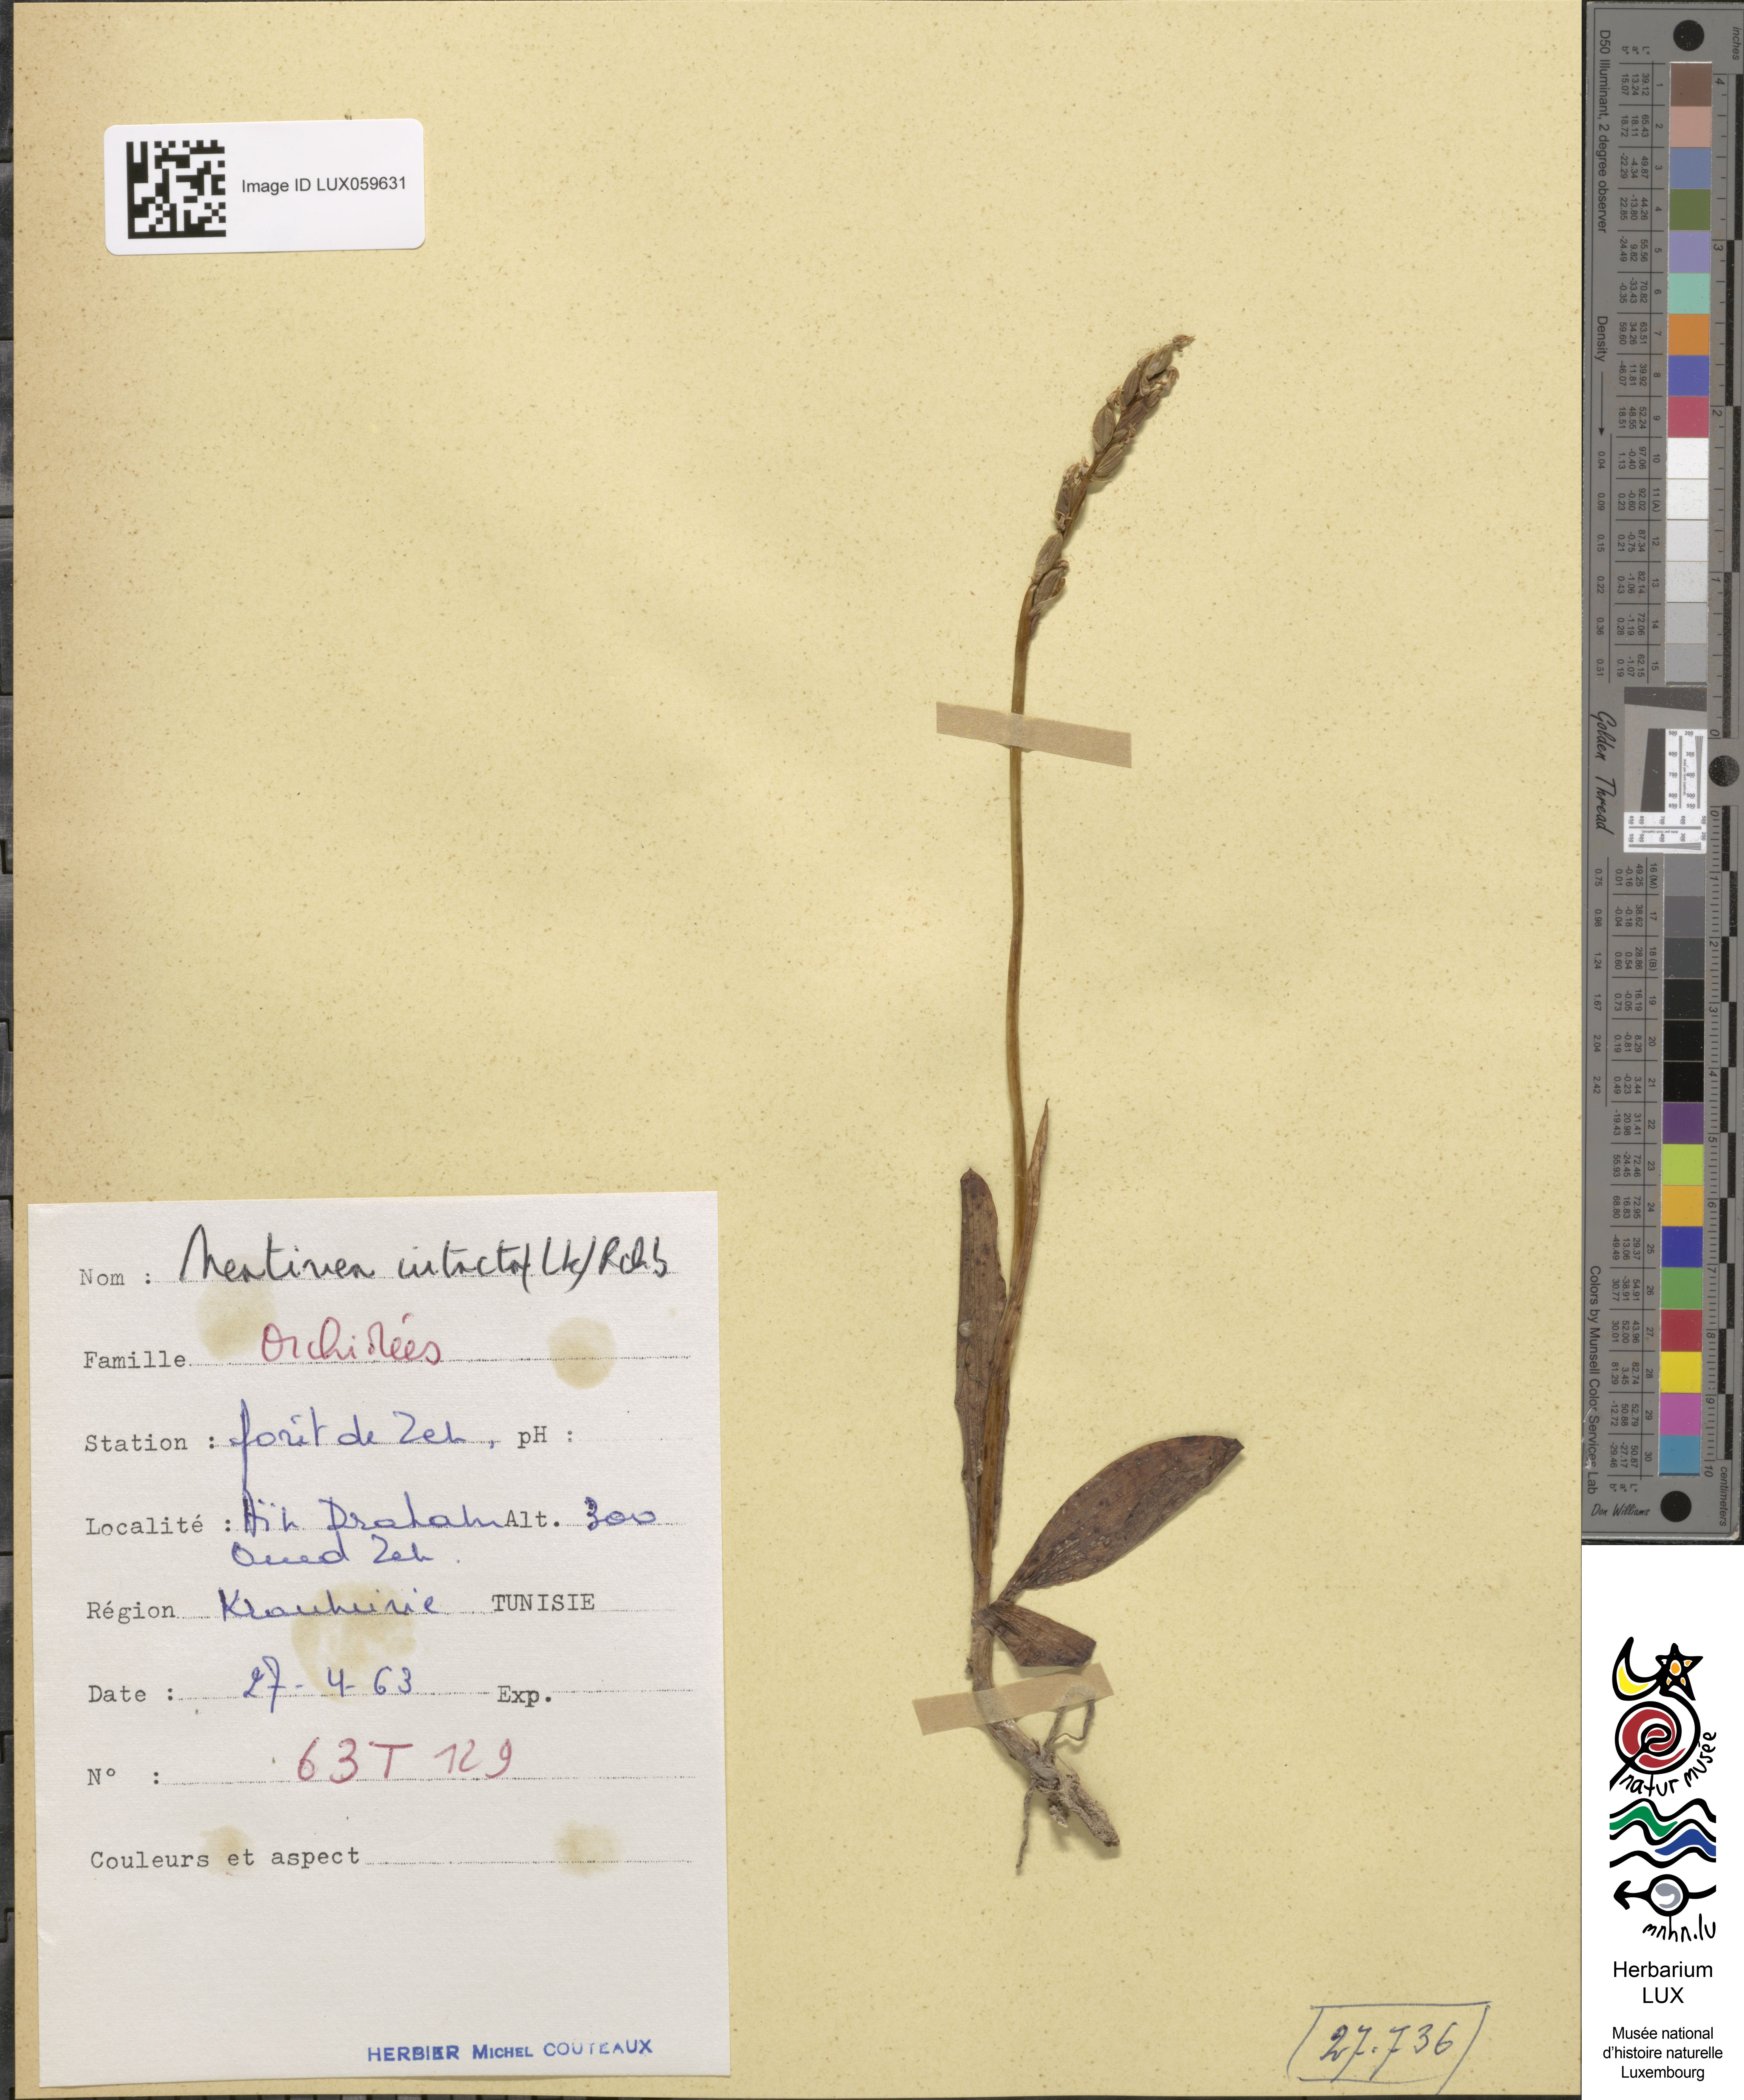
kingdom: Plantae
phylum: Tracheophyta
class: Liliopsida
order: Asparagales
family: Orchidaceae
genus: Neotinea
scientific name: Neotinea maculata
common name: Dense-flowered orchid
